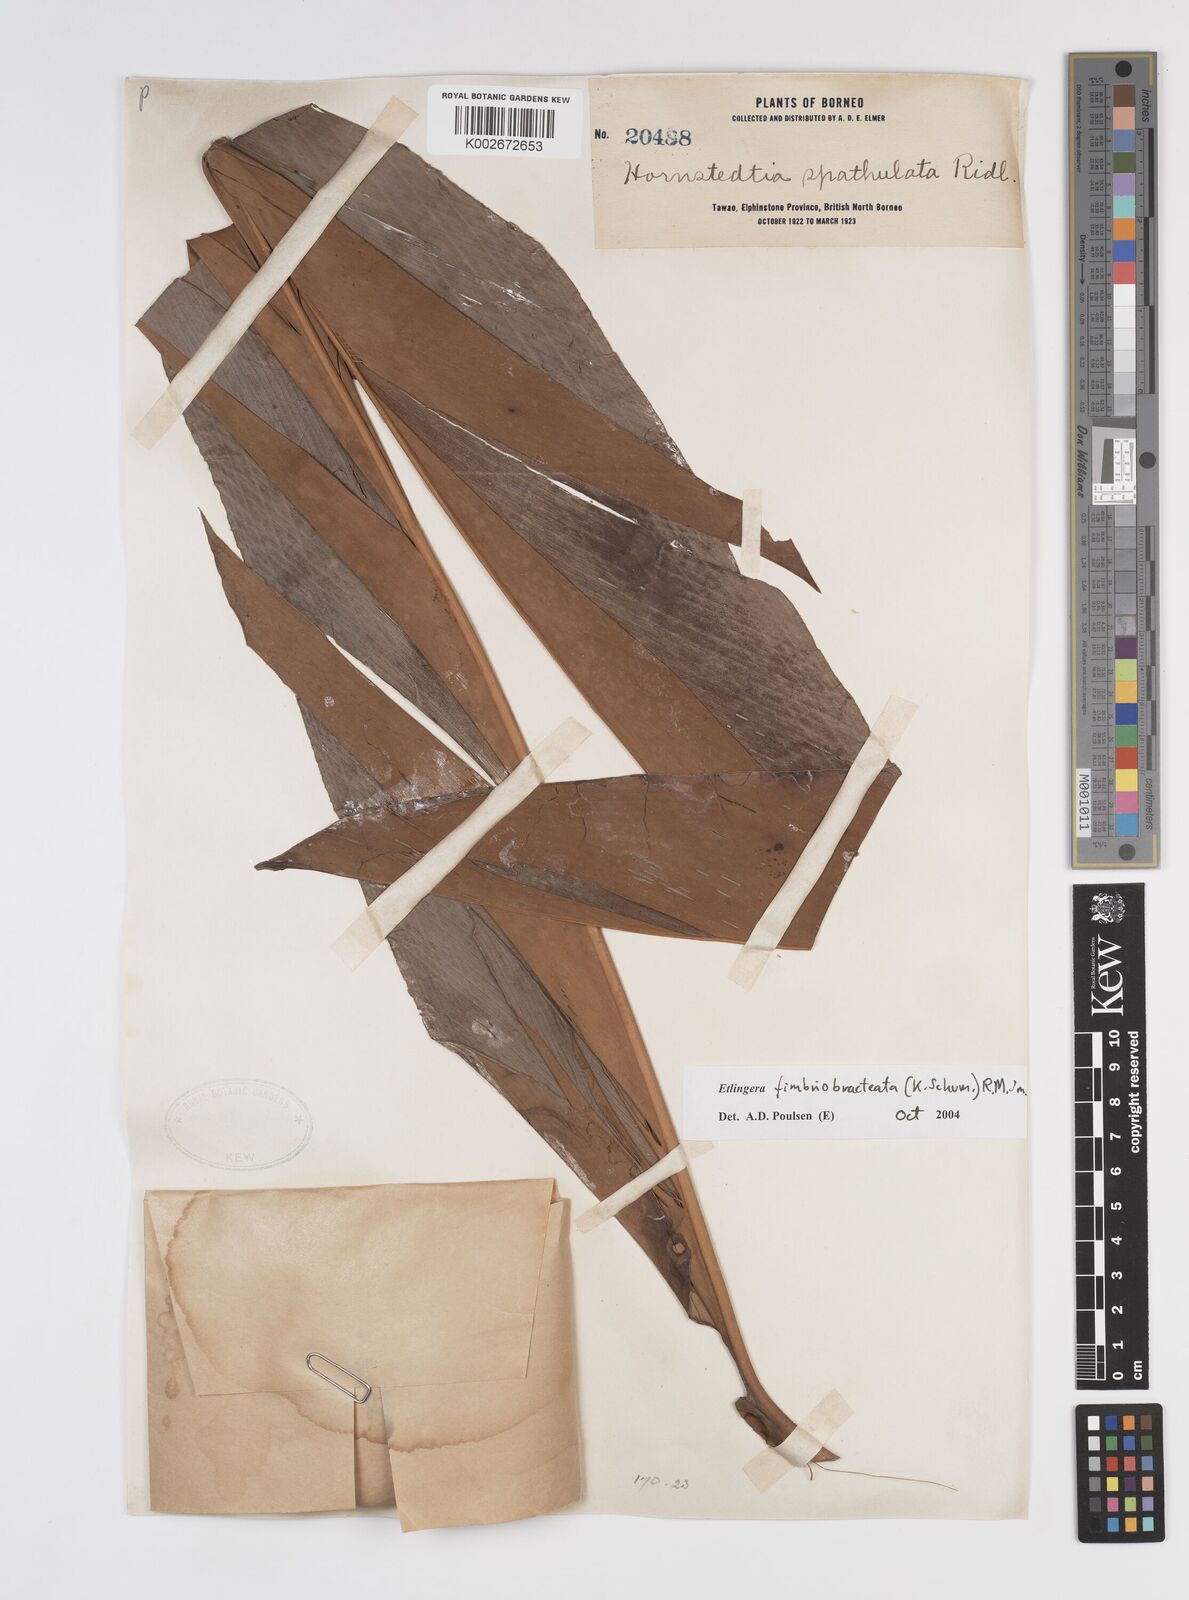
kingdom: Plantae
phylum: Tracheophyta
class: Liliopsida
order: Zingiberales
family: Zingiberaceae
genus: Etlingera
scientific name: Etlingera fimbriobracteata
